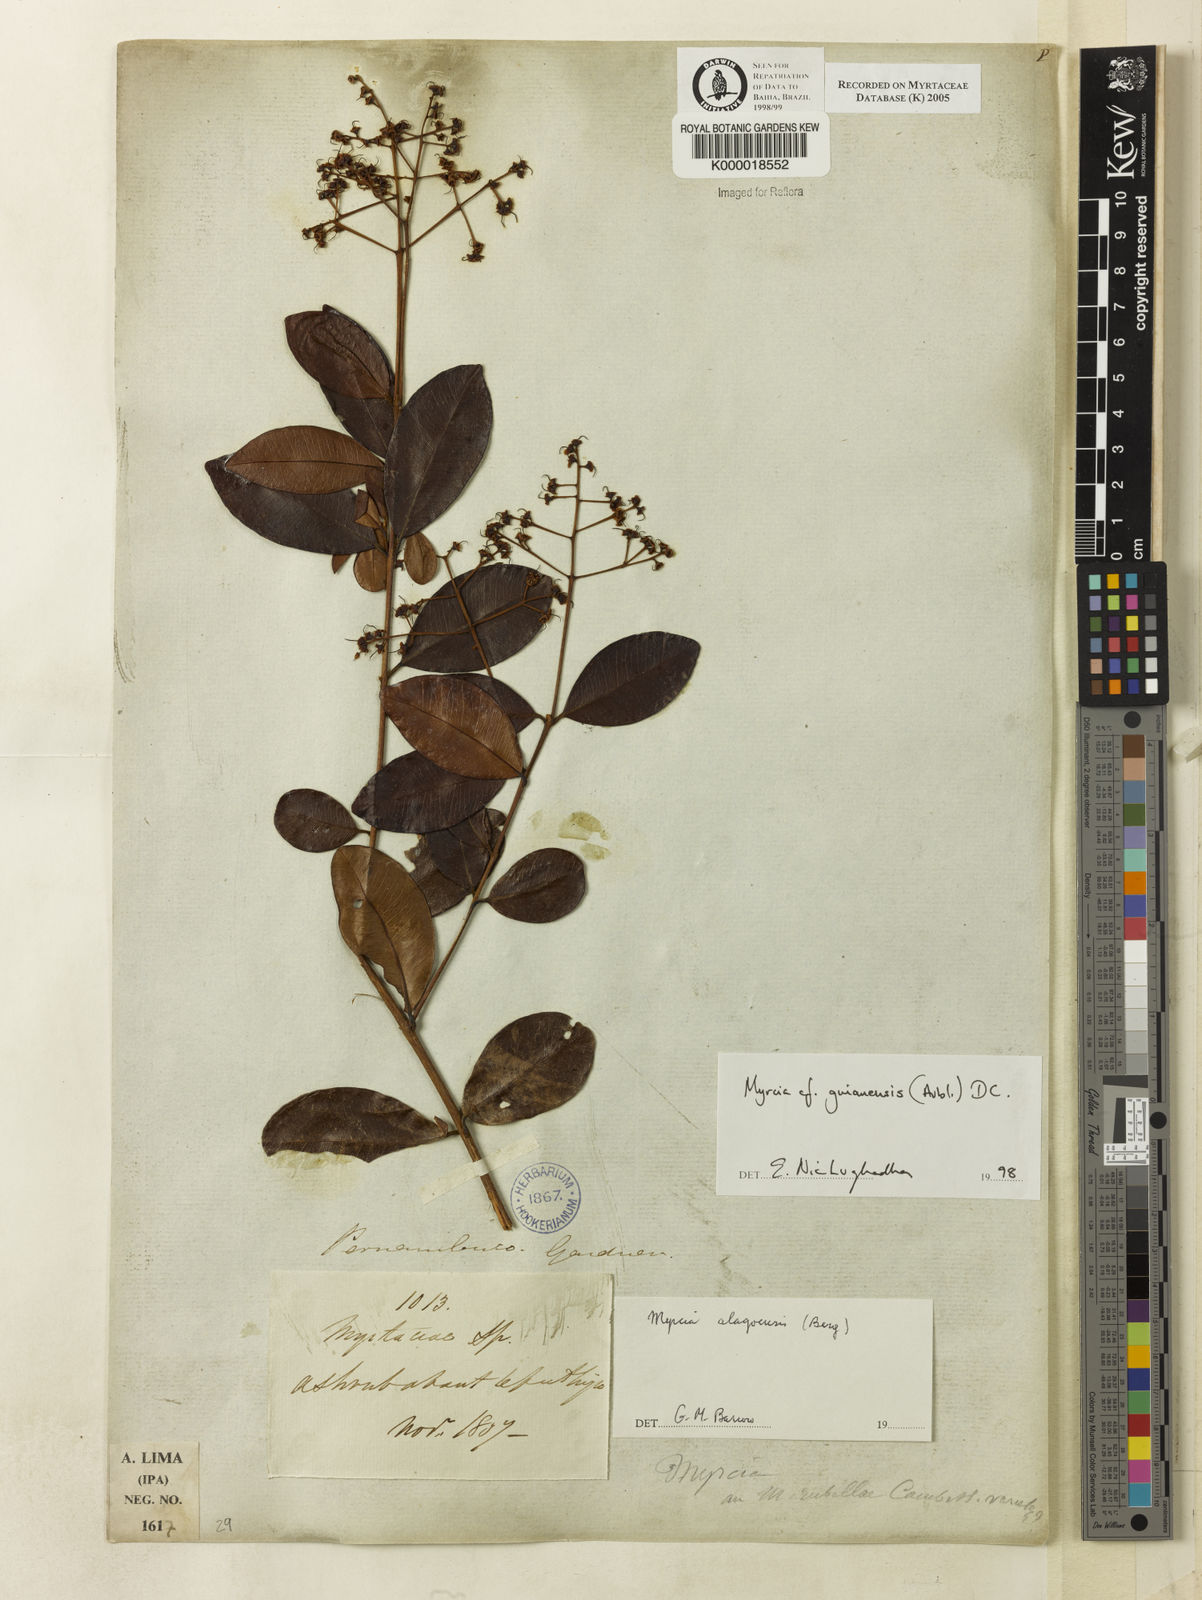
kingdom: Plantae
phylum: Tracheophyta
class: Magnoliopsida
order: Myrtales
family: Myrtaceae
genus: Myrcia
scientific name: Myrcia guianensis
